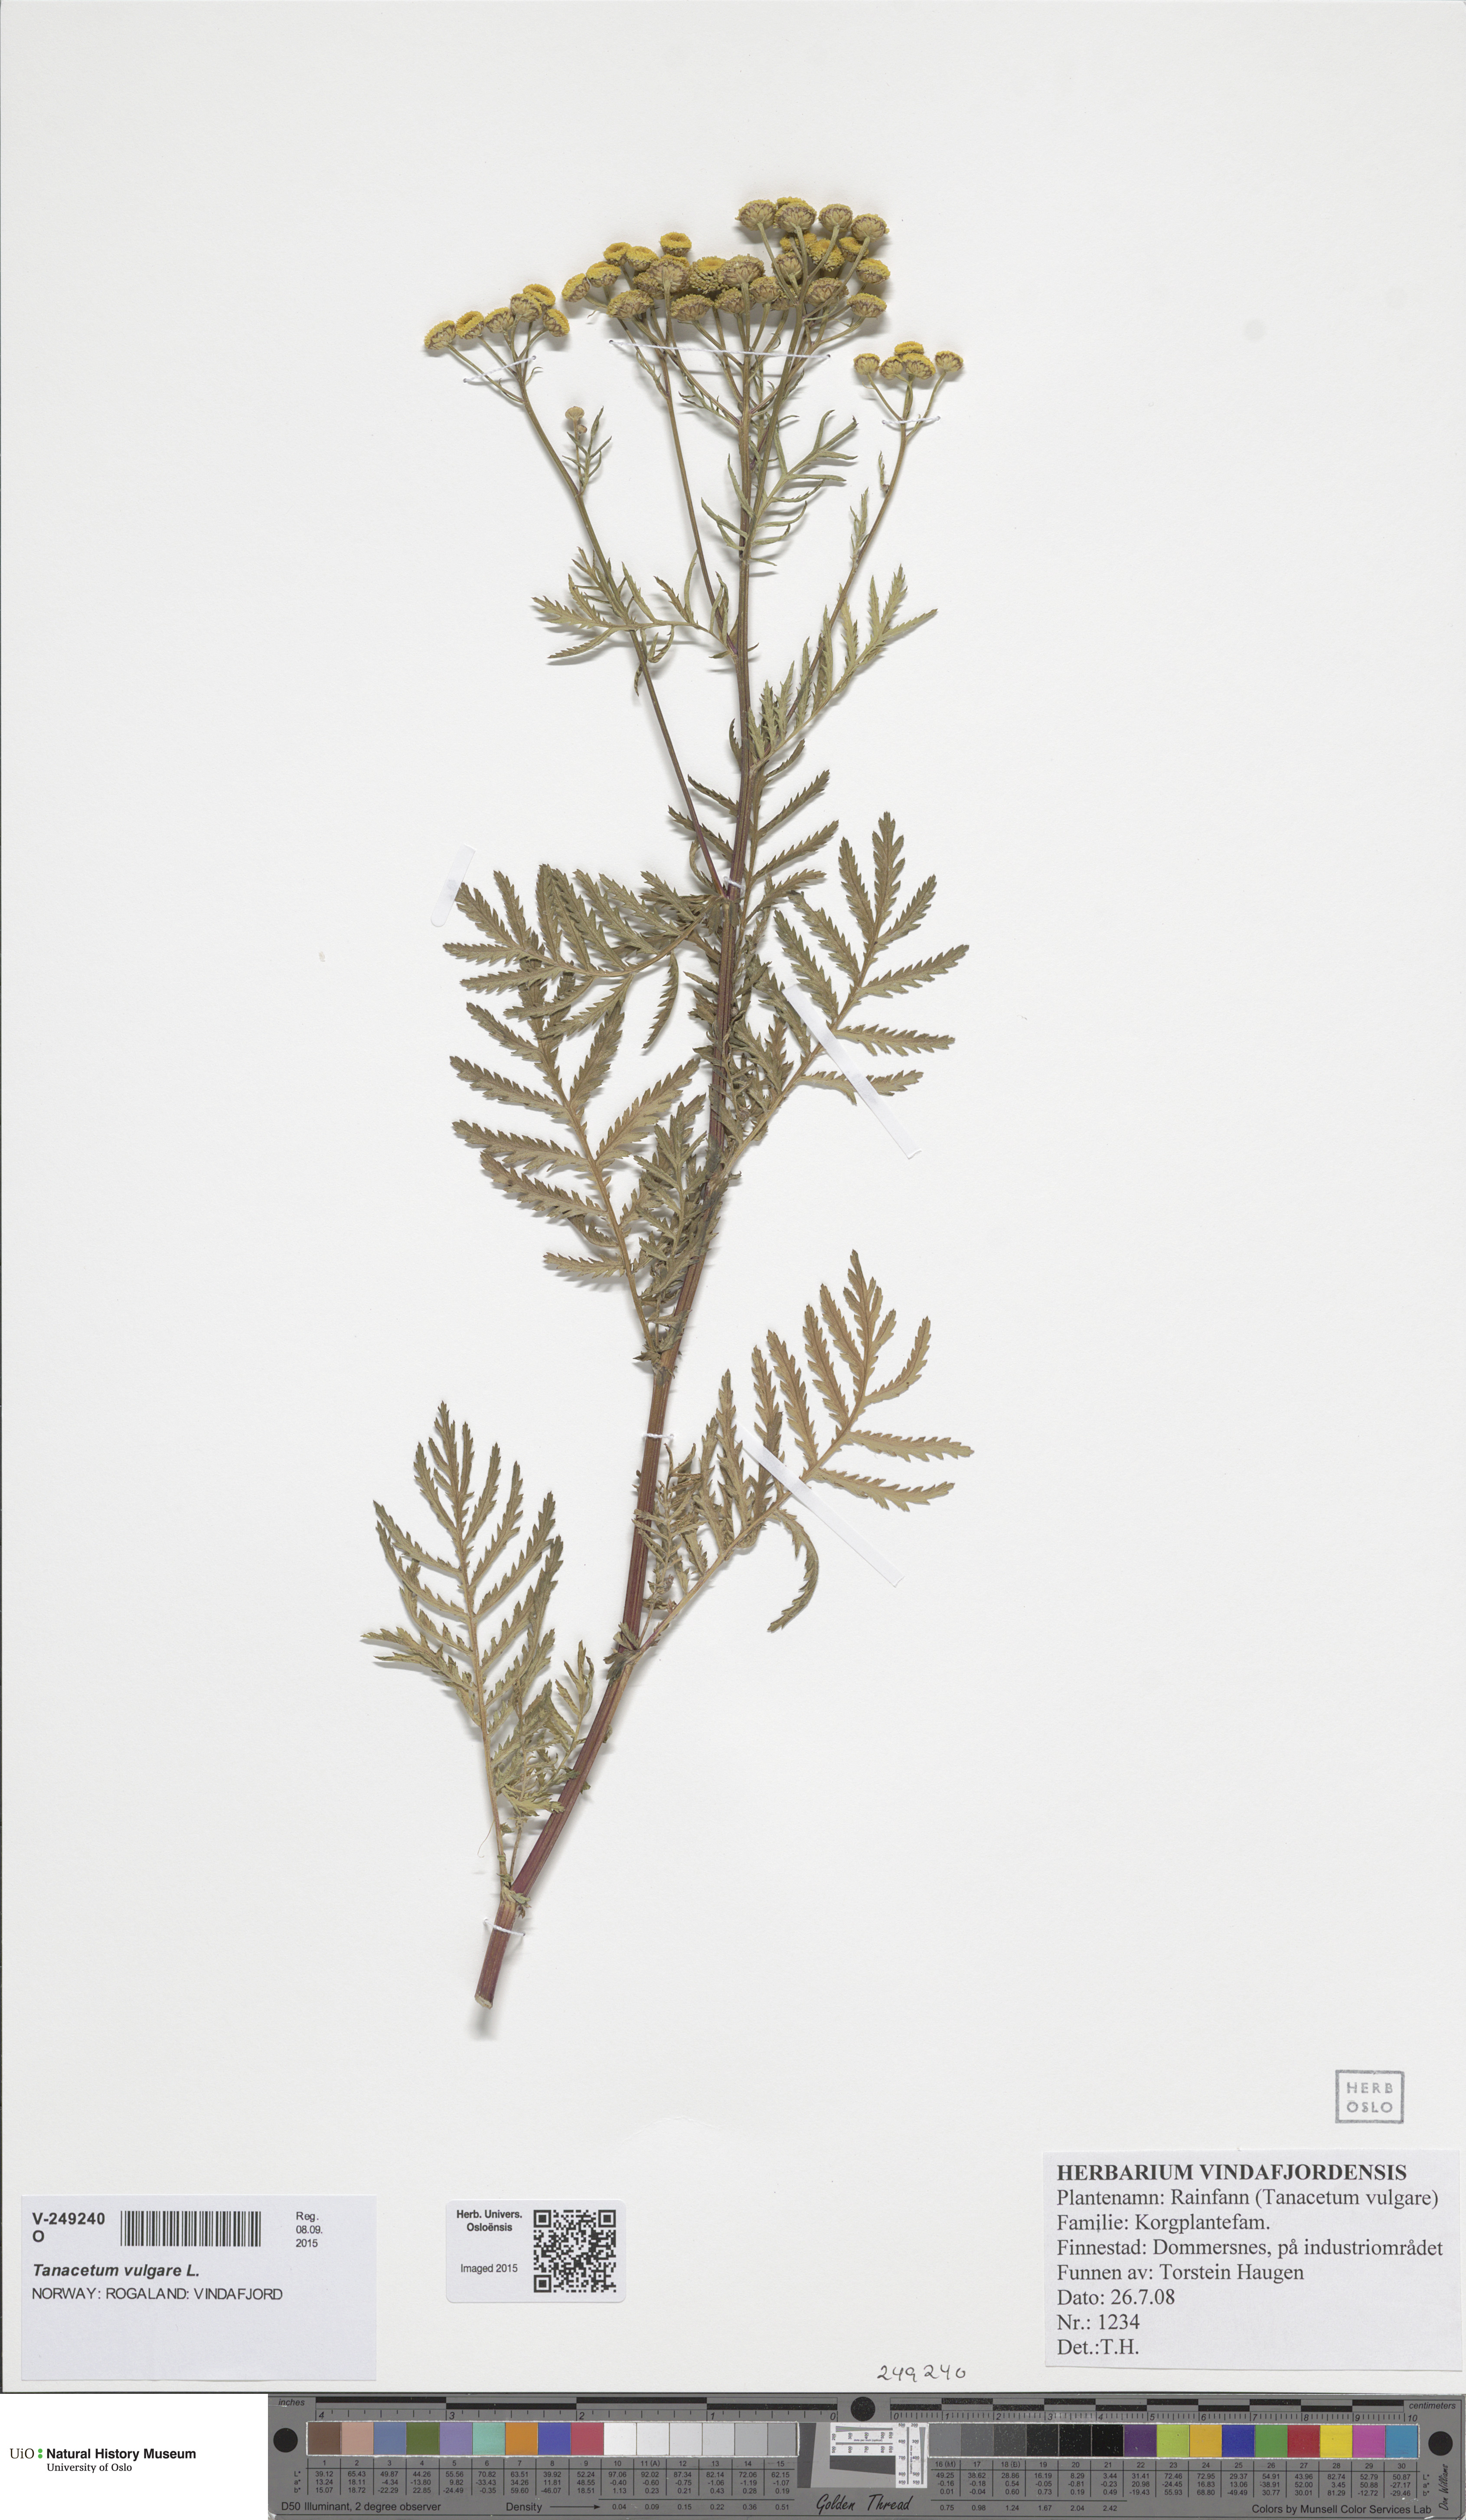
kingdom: Plantae
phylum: Tracheophyta
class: Magnoliopsida
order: Asterales
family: Asteraceae
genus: Tanacetum
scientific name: Tanacetum vulgare
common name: Common tansy
